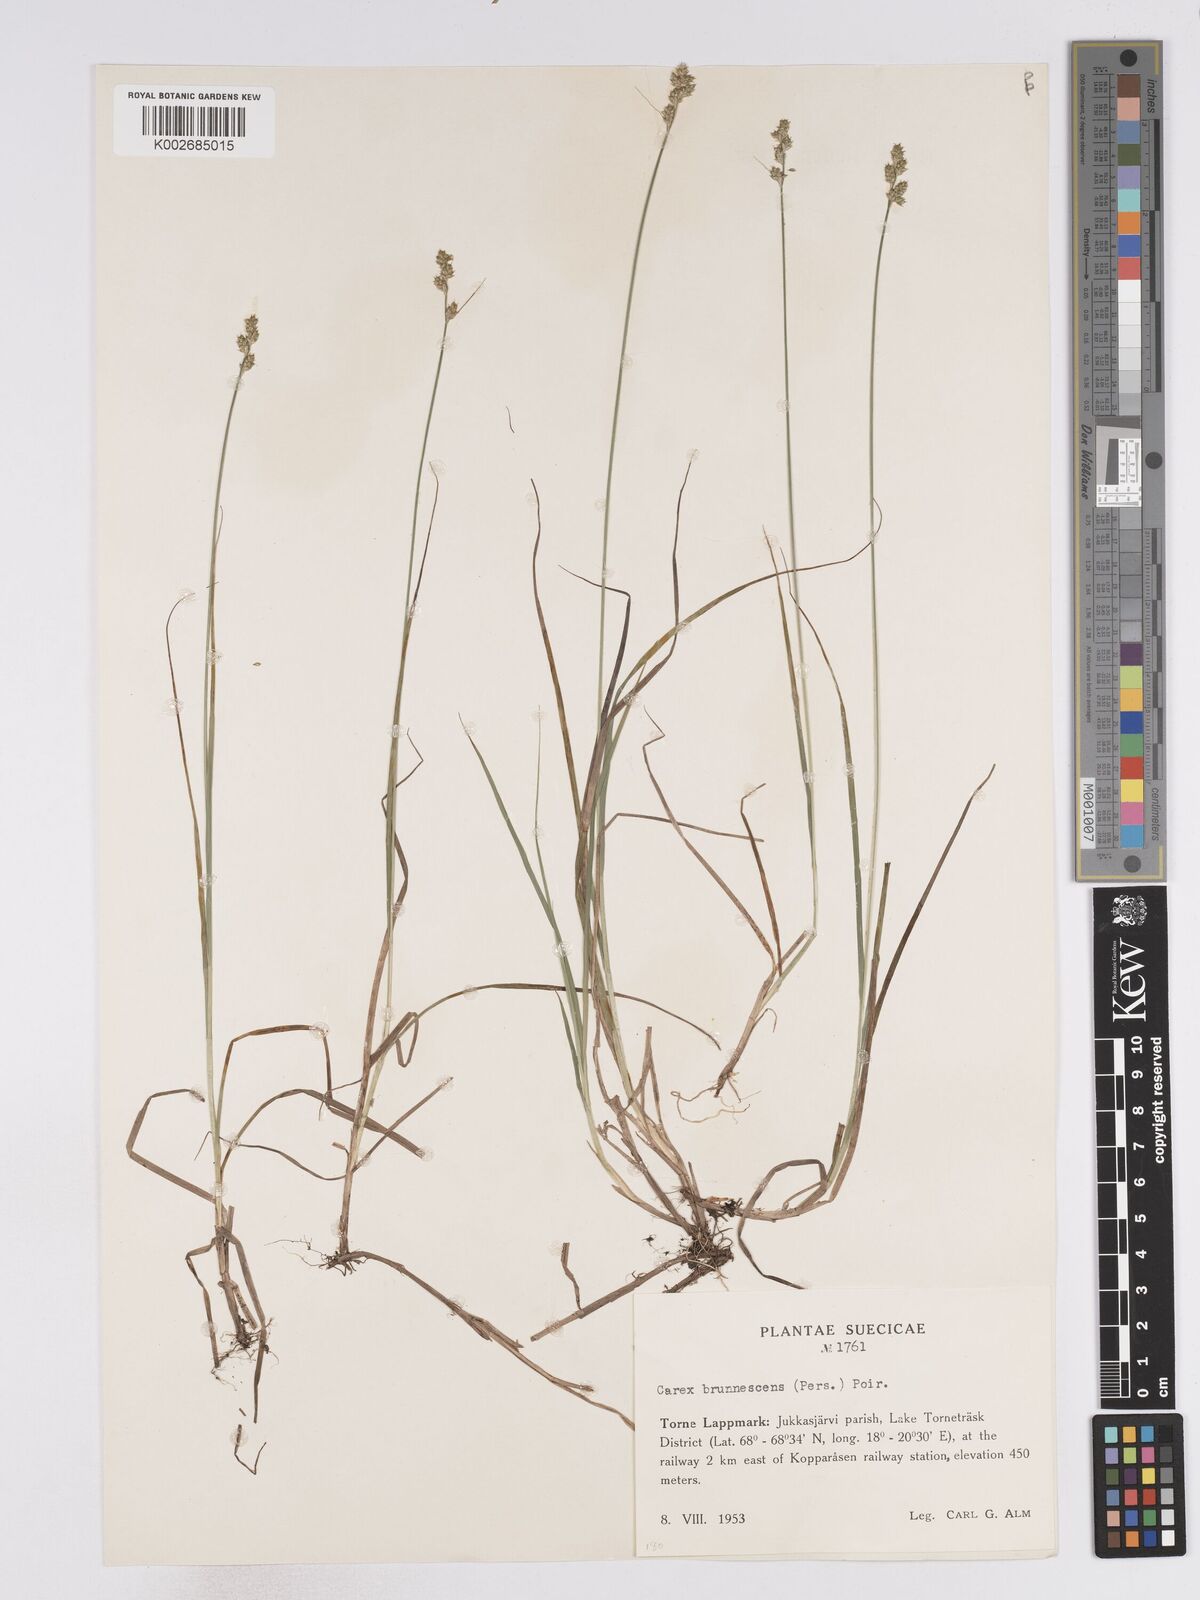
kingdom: Plantae
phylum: Tracheophyta
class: Liliopsida
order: Poales
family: Cyperaceae
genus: Carex
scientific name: Carex brunnescens
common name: Brown sedge
